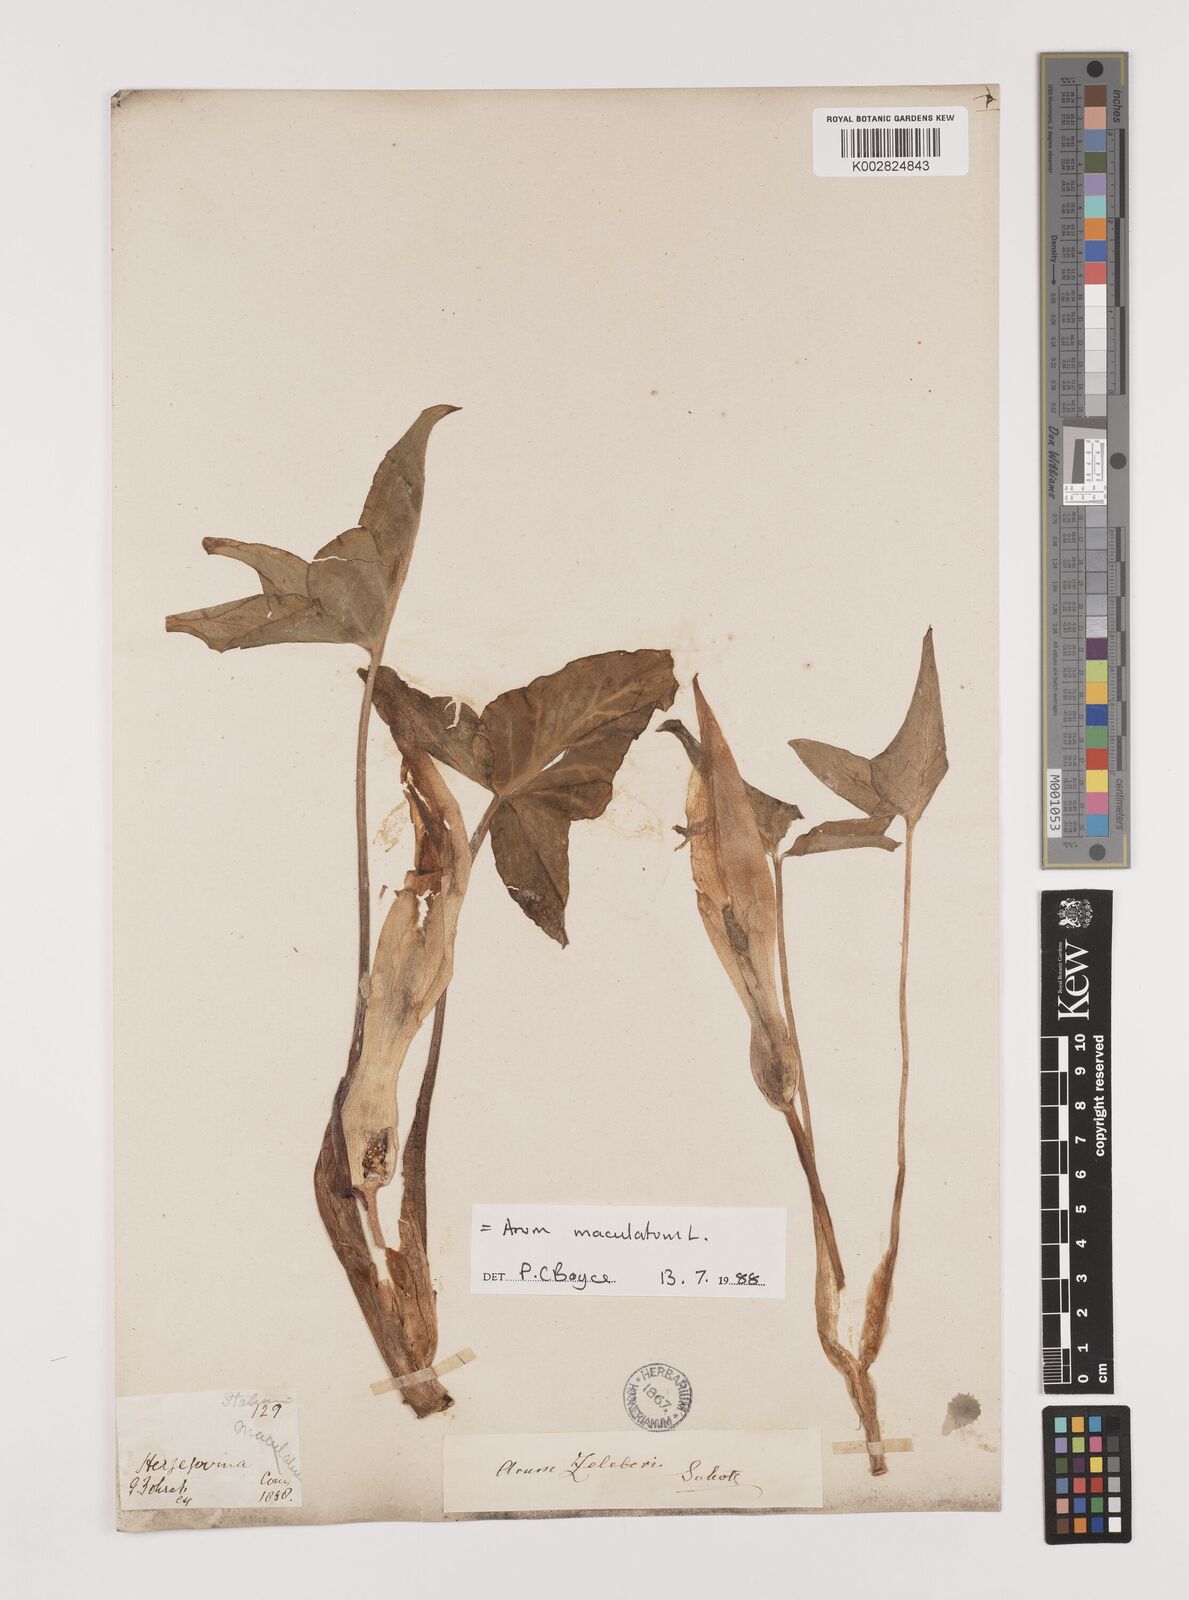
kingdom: Plantae
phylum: Tracheophyta
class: Liliopsida
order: Alismatales
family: Araceae
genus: Arum
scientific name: Arum maculatum
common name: Lords-and-ladies
